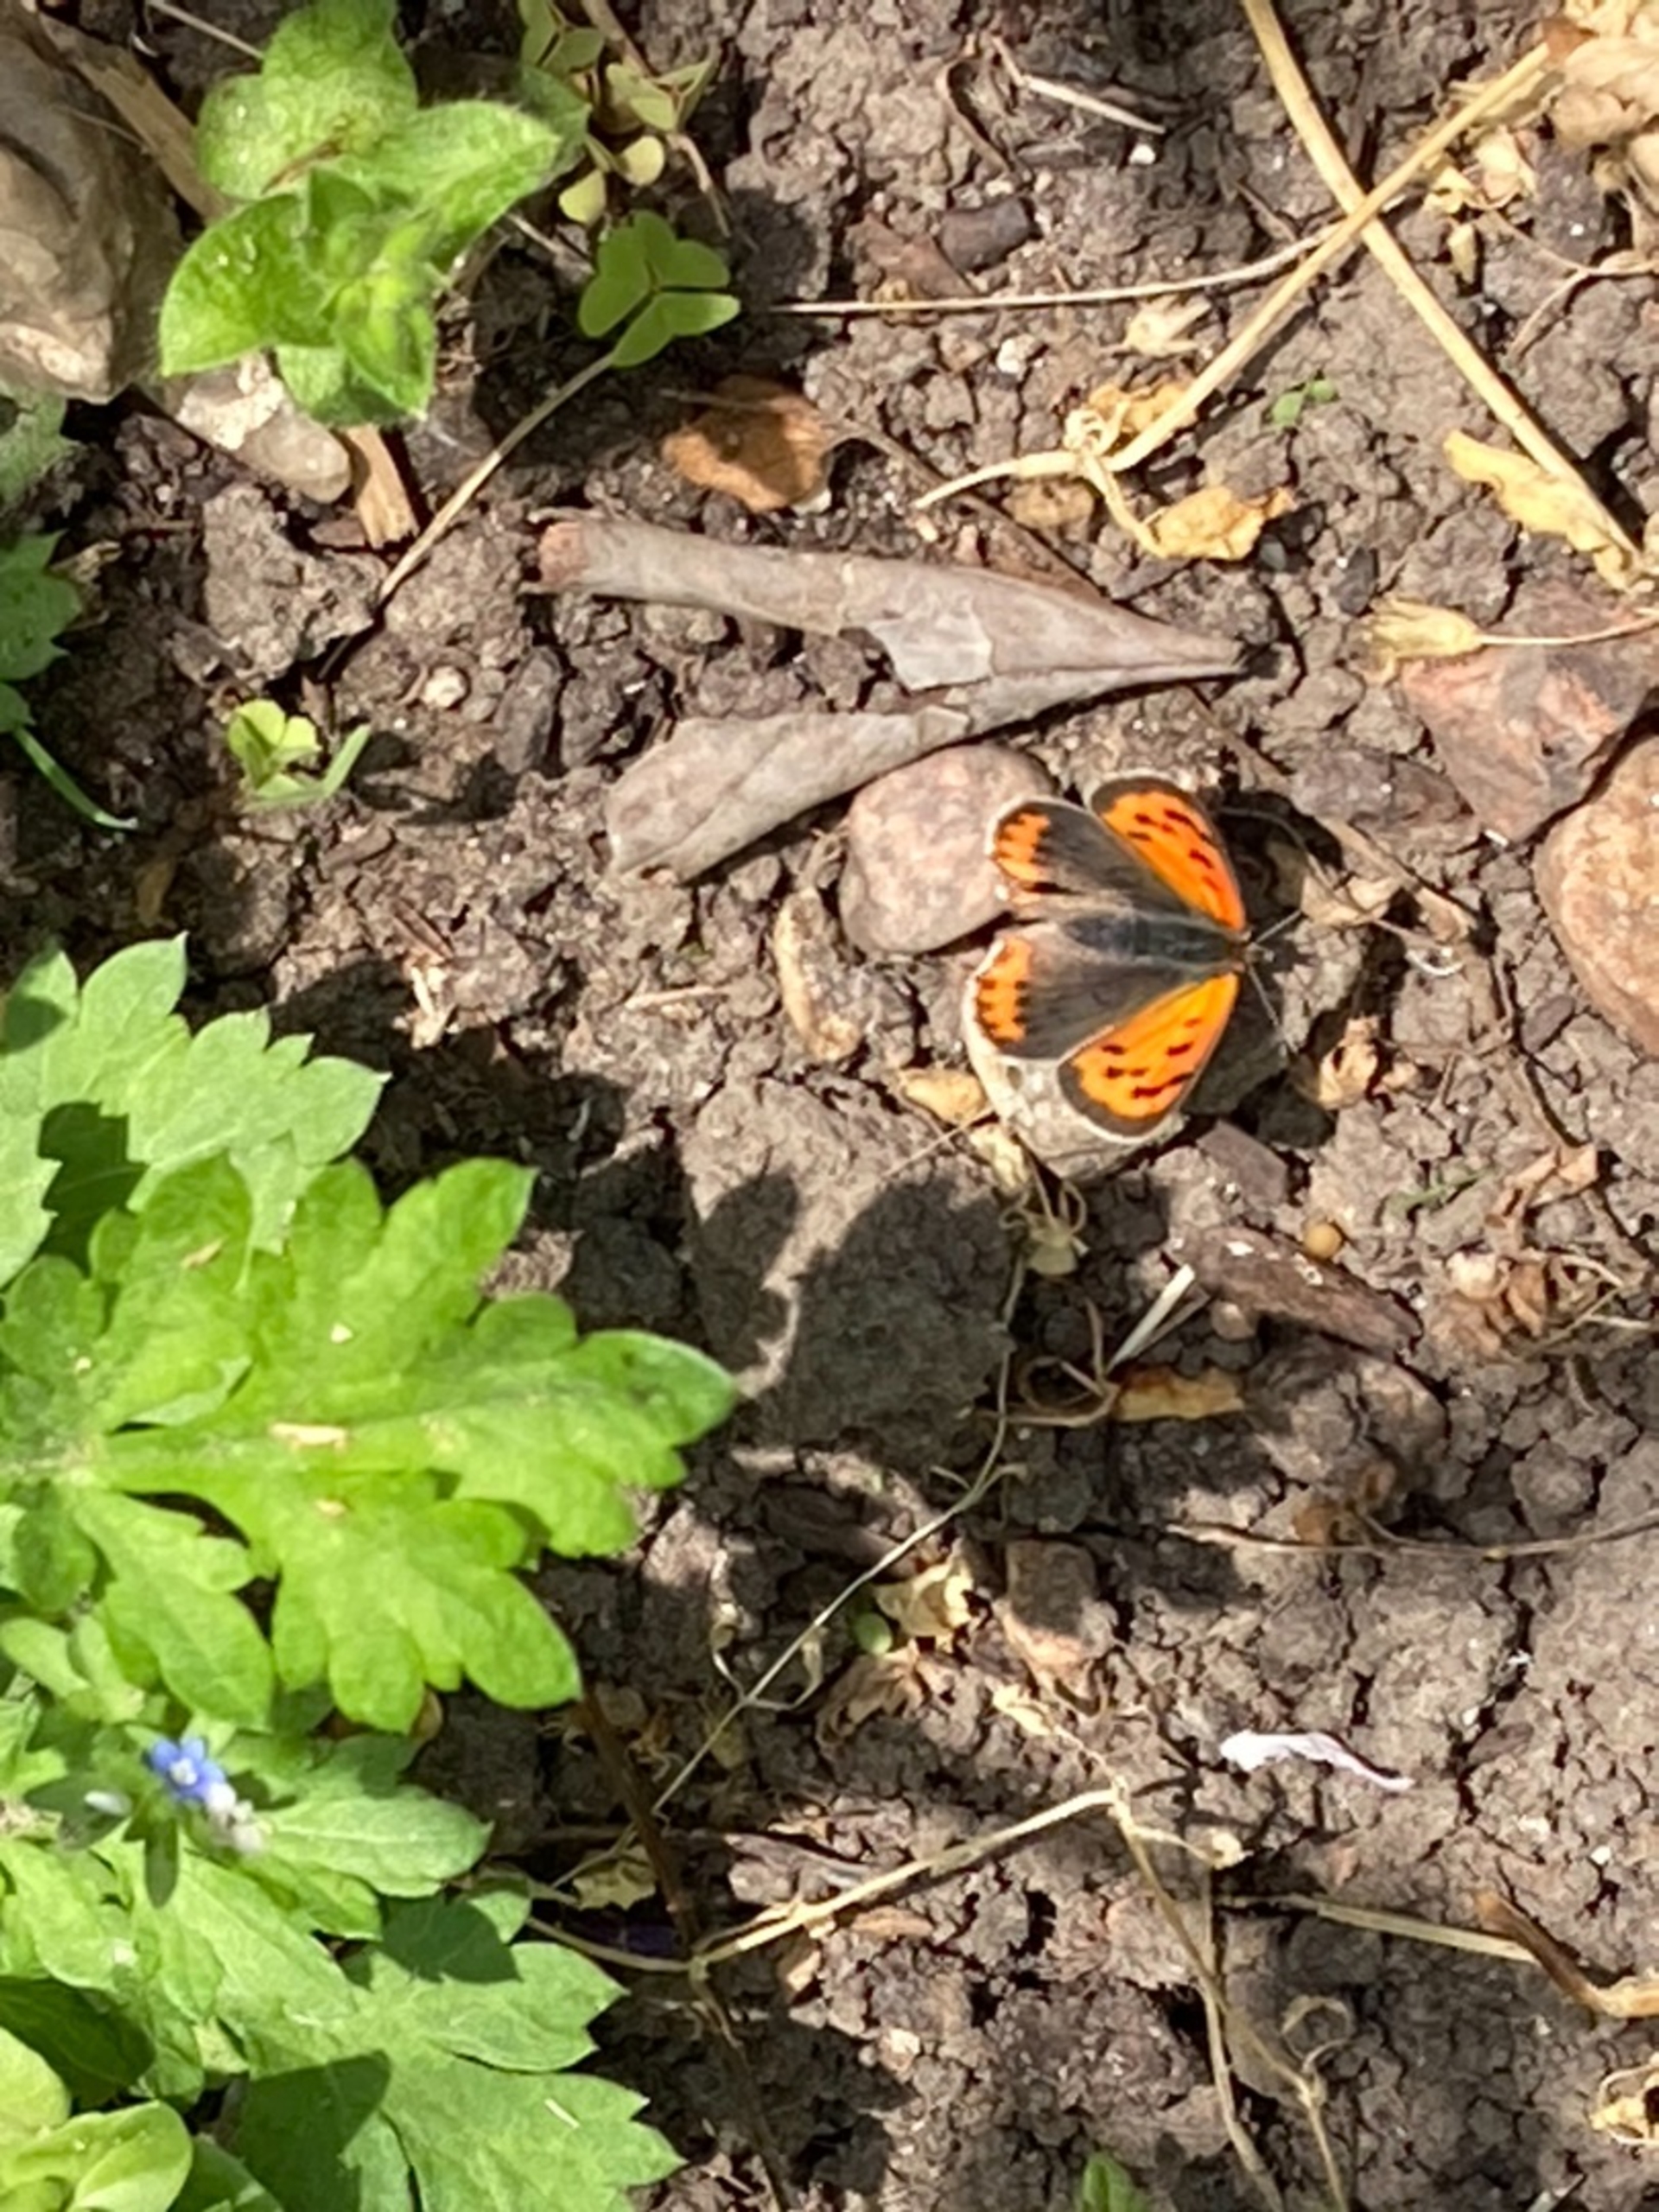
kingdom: Animalia
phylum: Arthropoda
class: Insecta
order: Lepidoptera
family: Lycaenidae
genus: Lycaena
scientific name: Lycaena phlaeas
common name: Lille ildfugl
